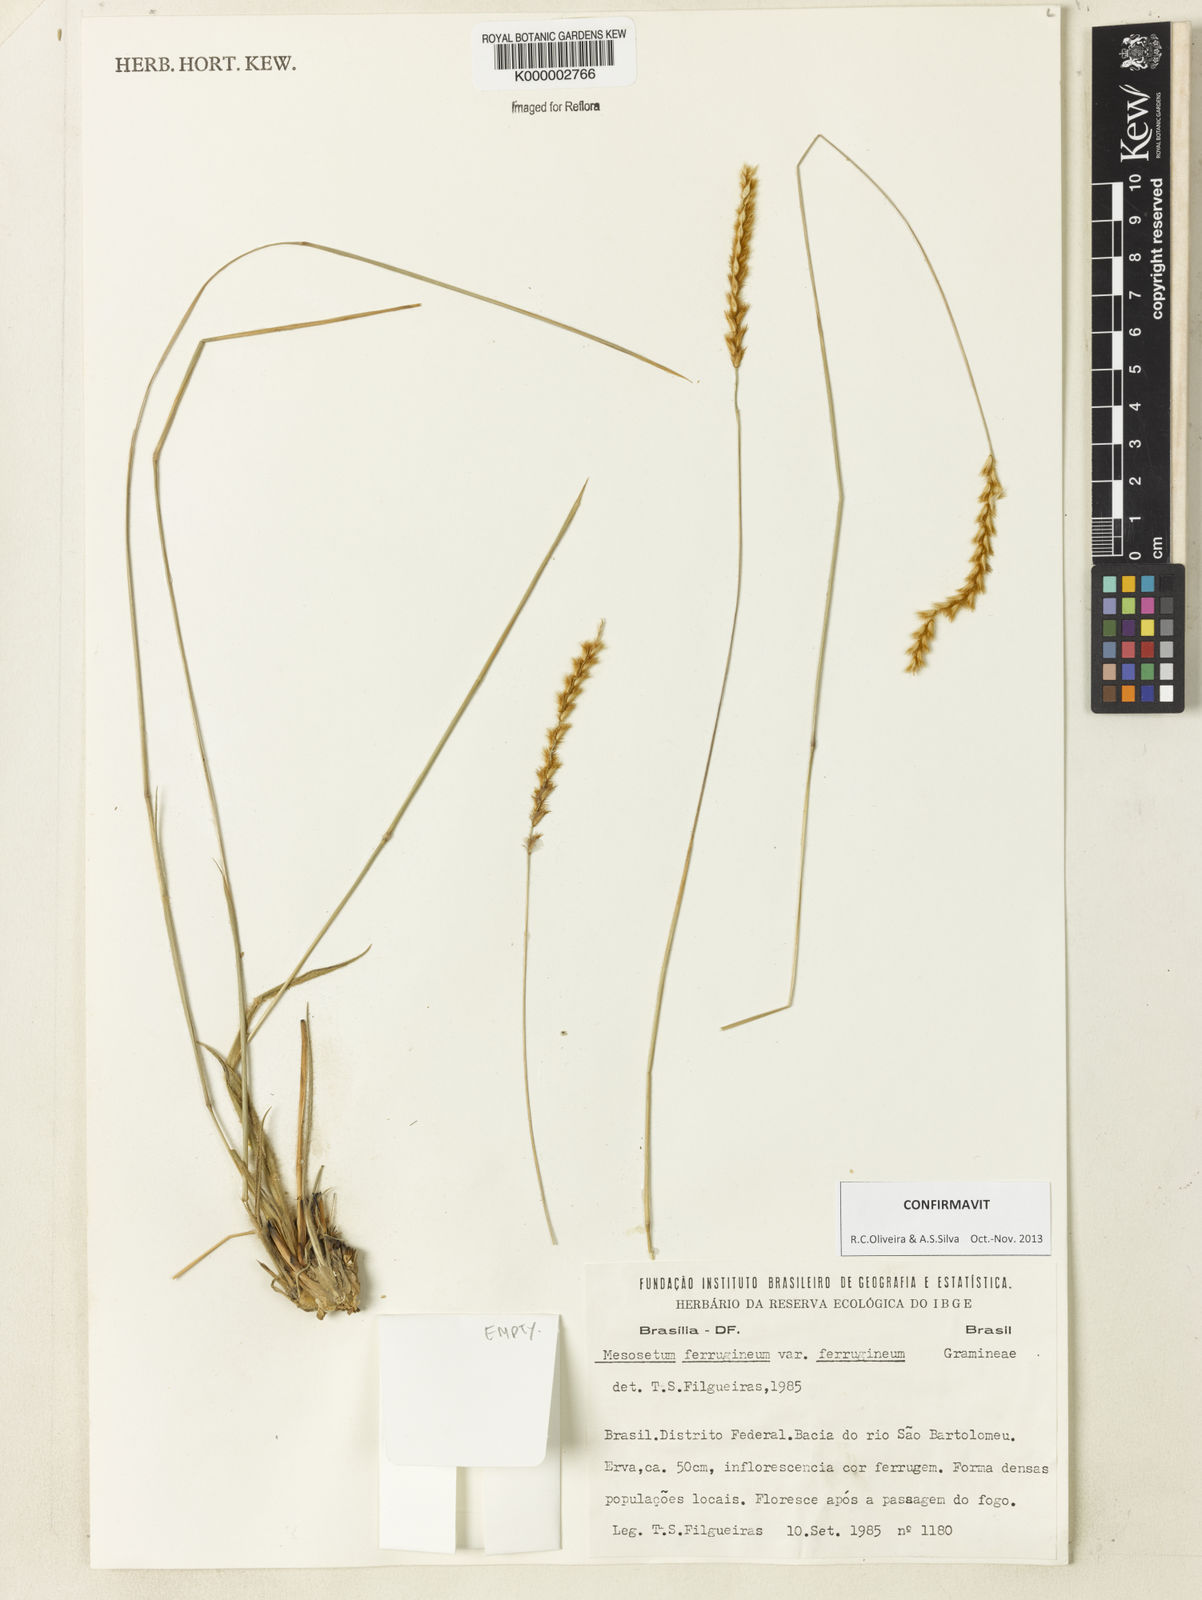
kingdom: Plantae
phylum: Tracheophyta
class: Liliopsida
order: Poales
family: Poaceae
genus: Mesosetum
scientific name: Mesosetum
